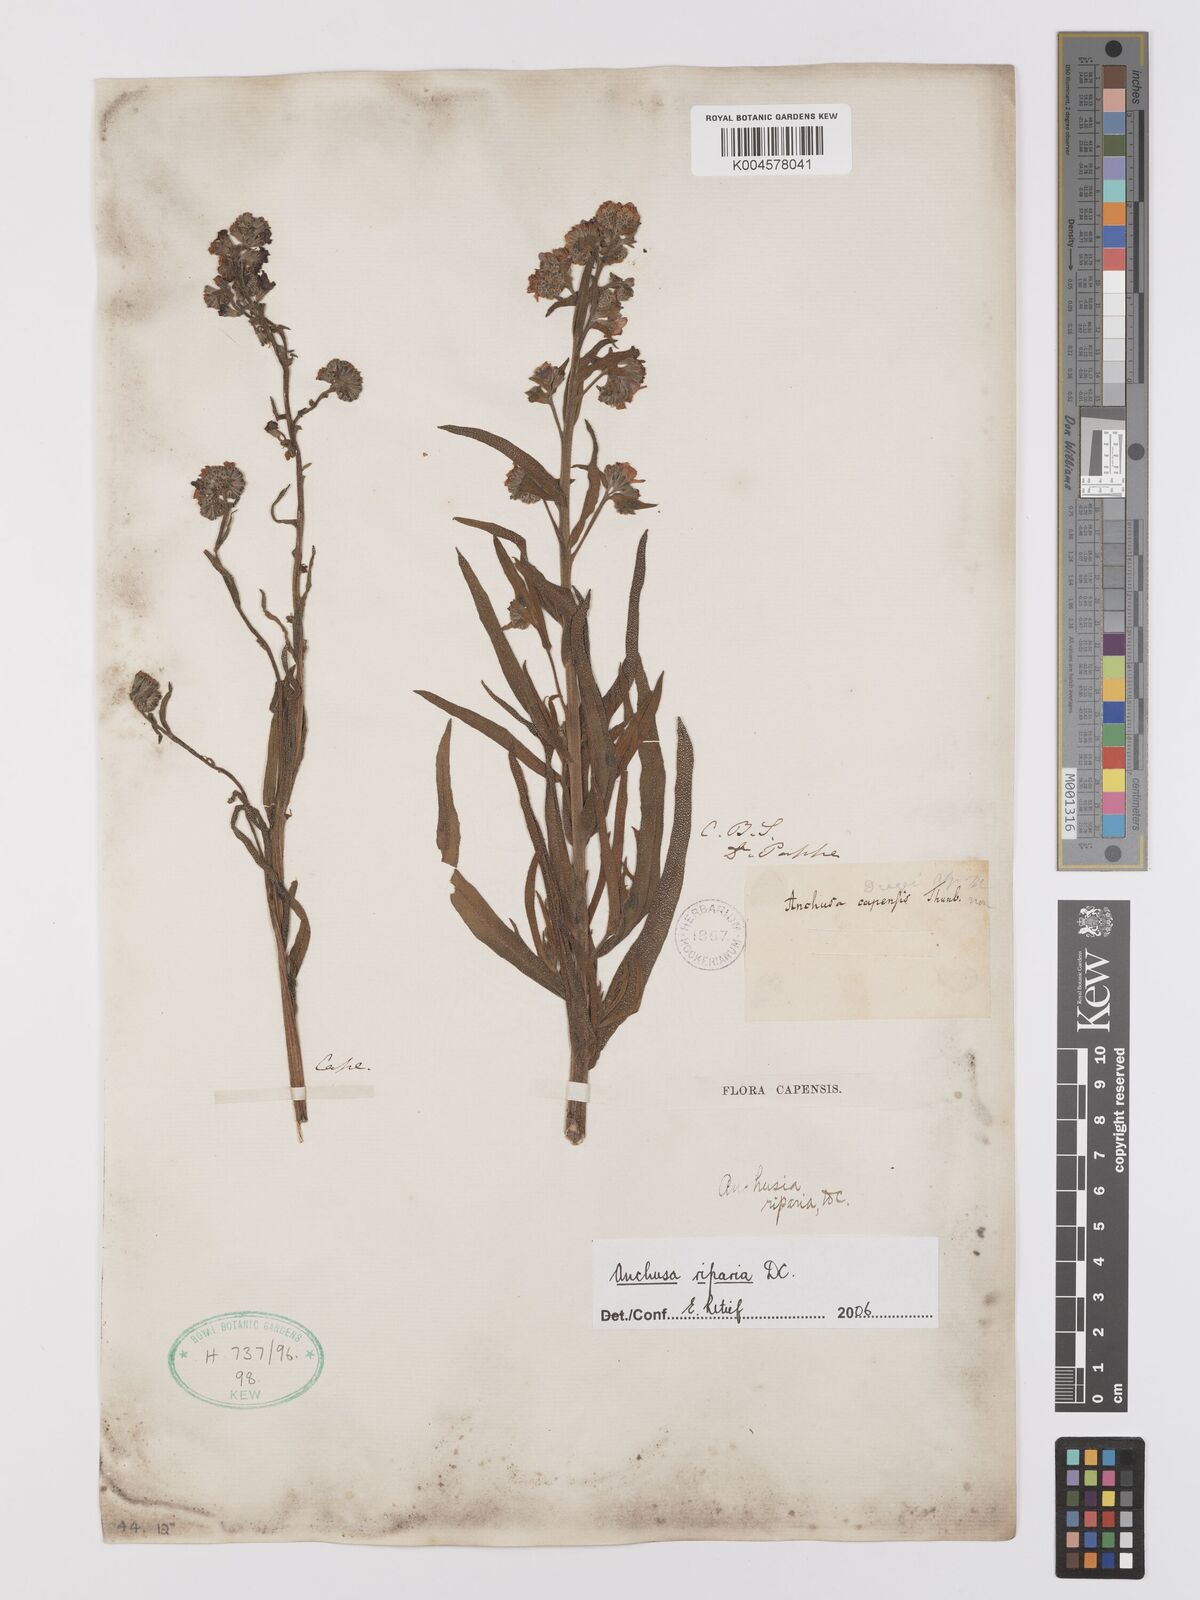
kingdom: Plantae
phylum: Tracheophyta
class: Magnoliopsida
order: Boraginales
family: Boraginaceae
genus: Anchusa
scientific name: Anchusa capensis
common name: Cape bugloss
